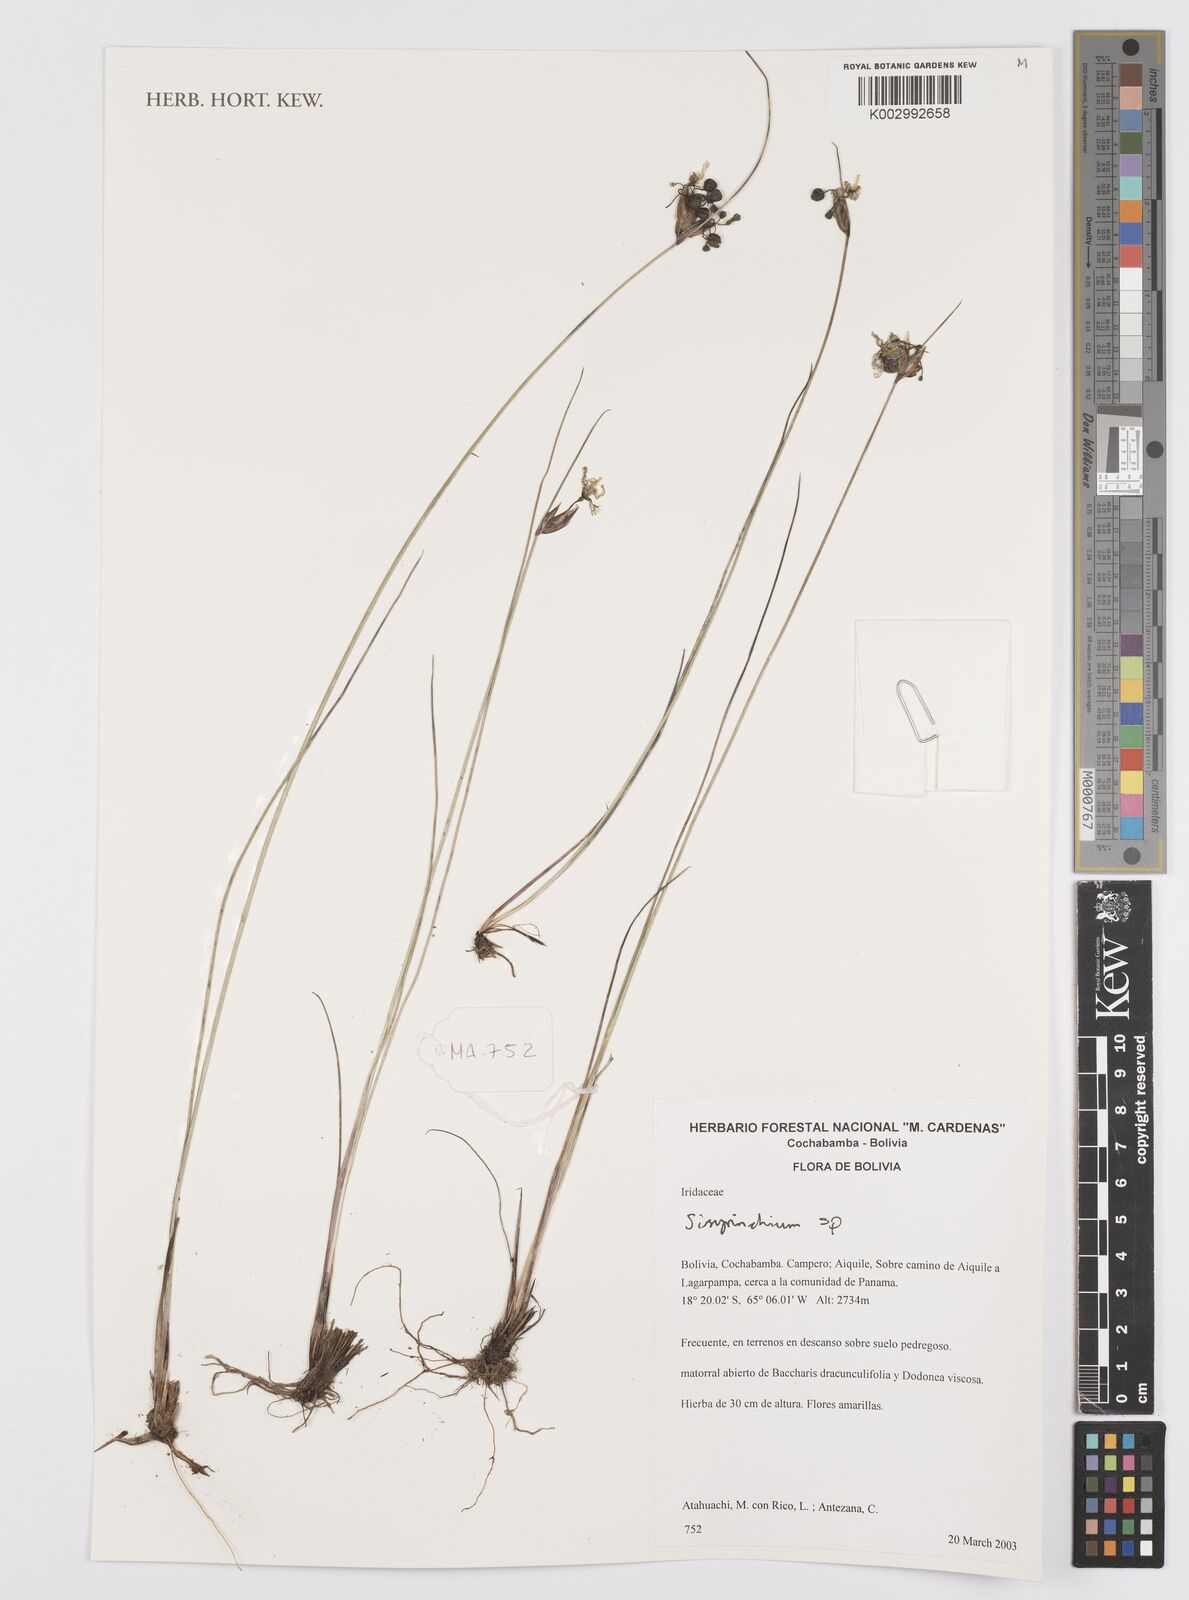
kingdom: Plantae
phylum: Tracheophyta
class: Liliopsida
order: Asparagales
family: Iridaceae
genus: Sisyrinchium
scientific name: Sisyrinchium
